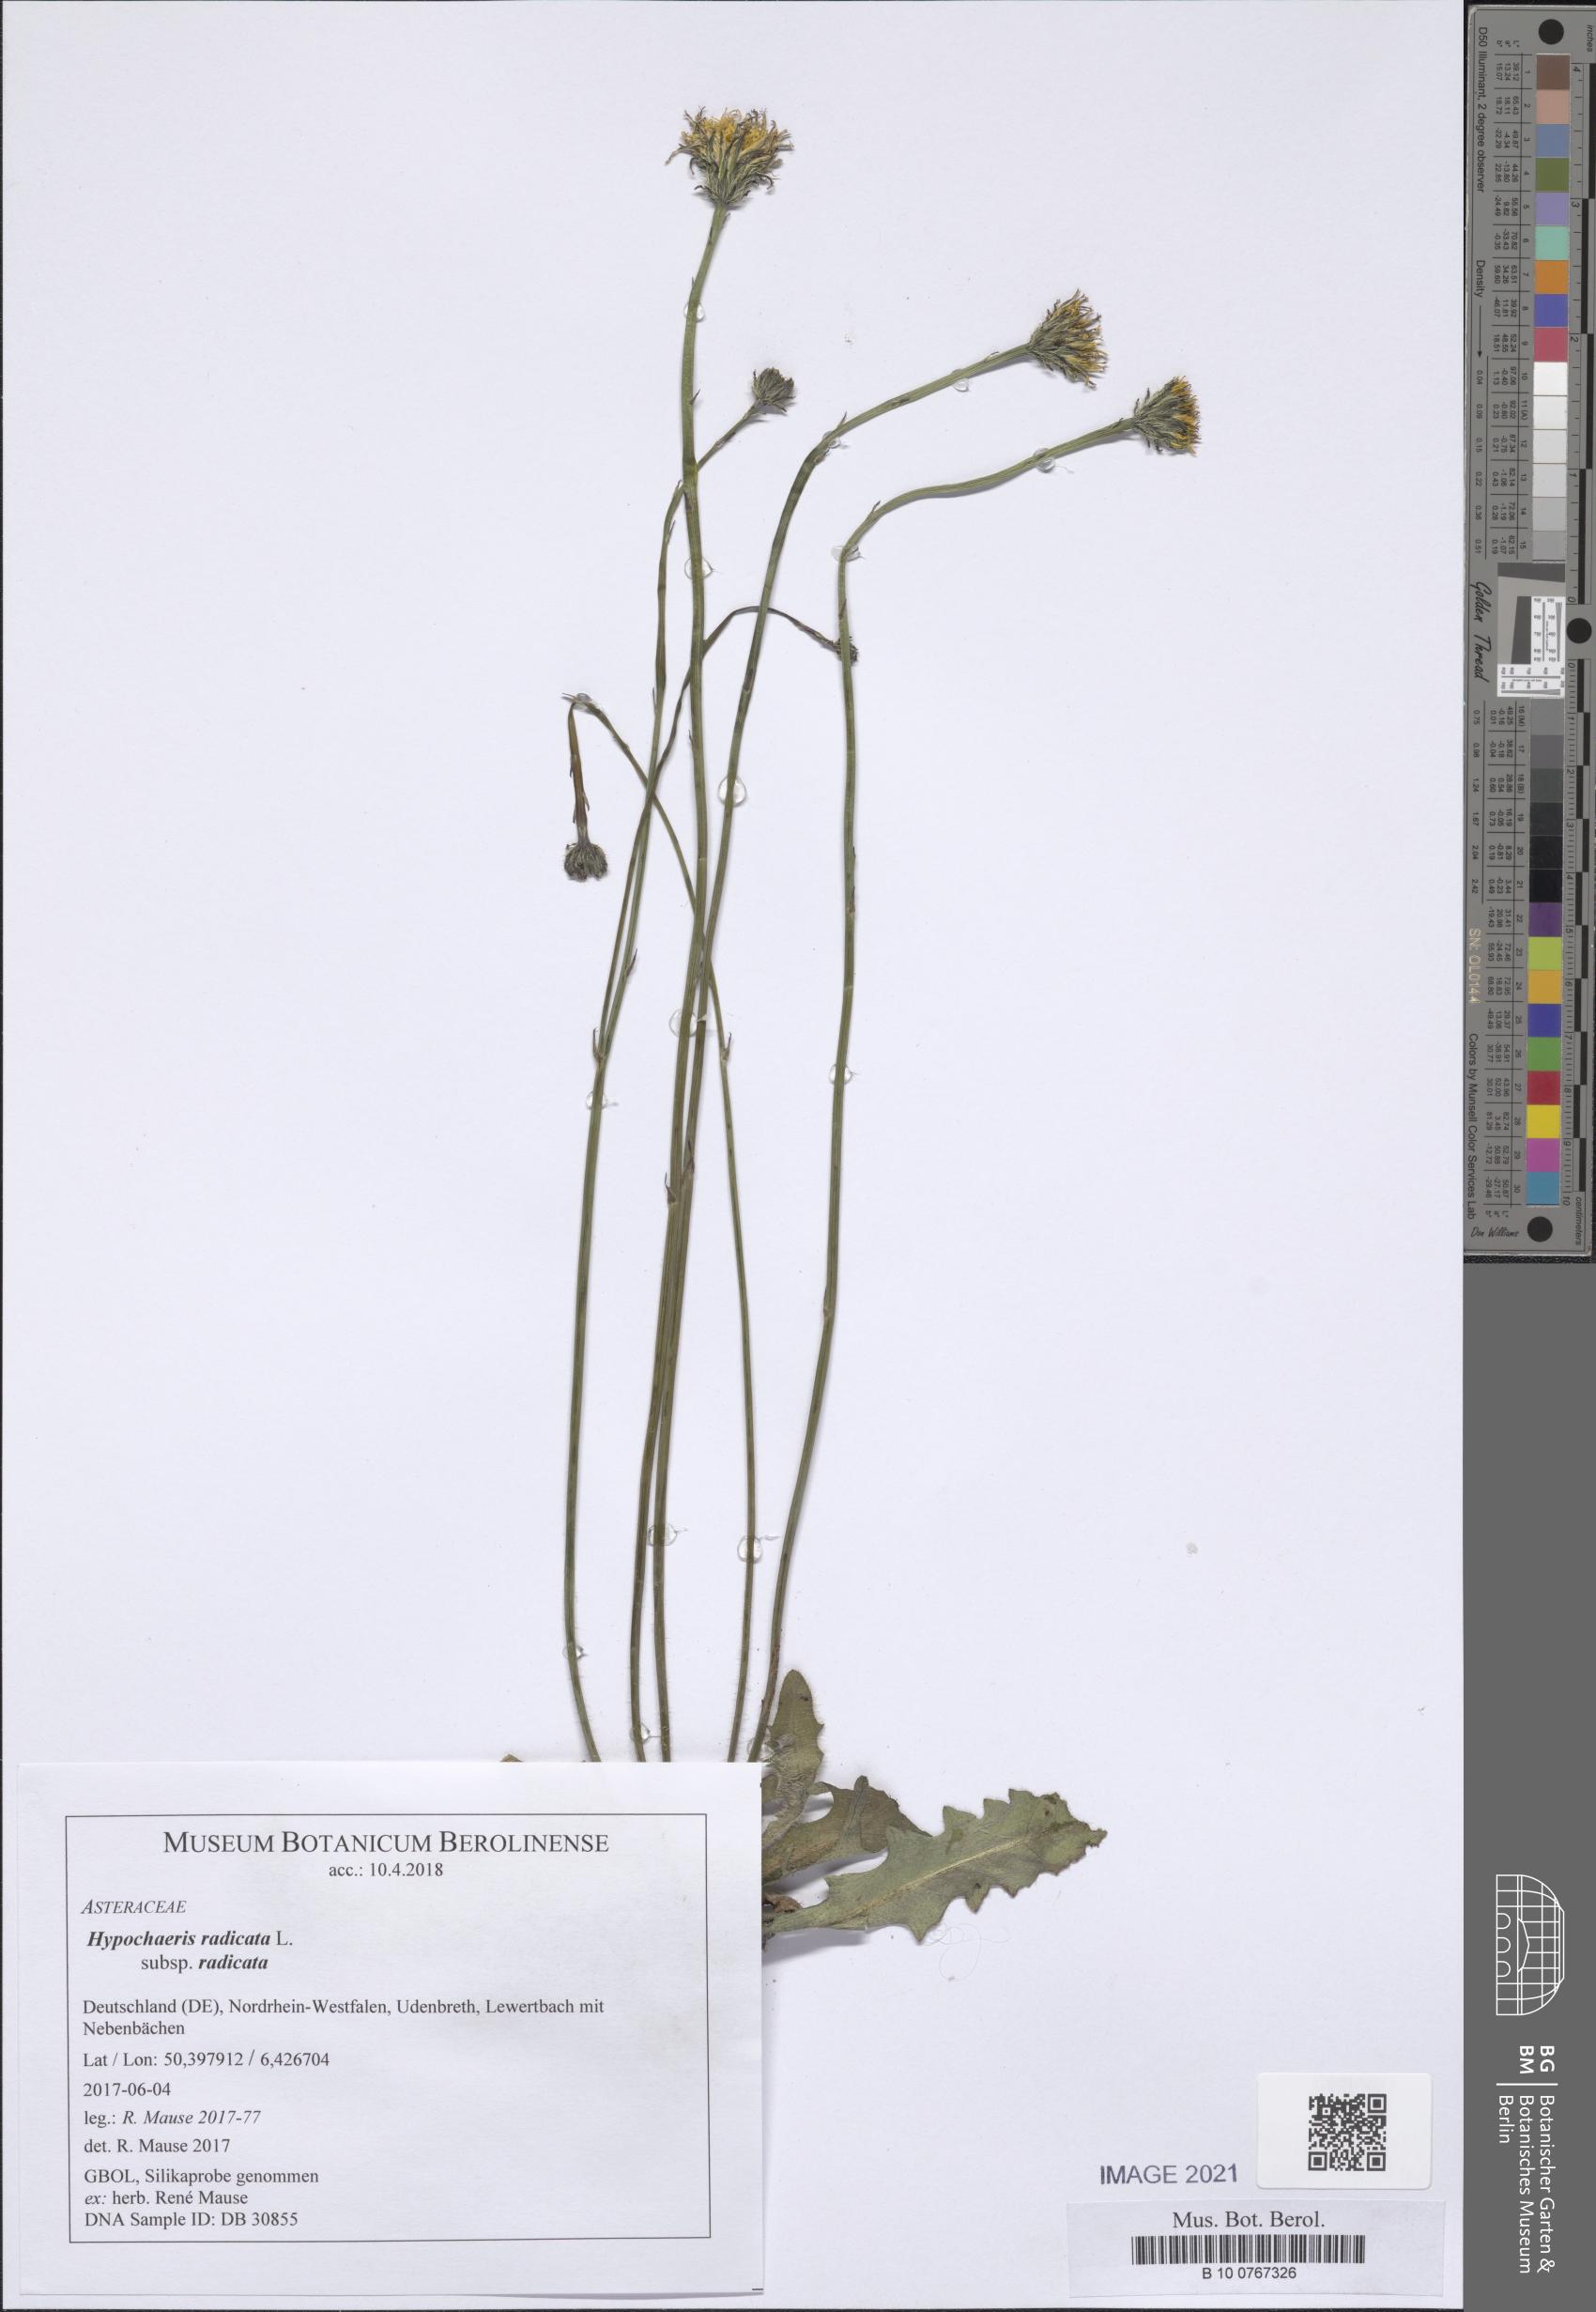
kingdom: Plantae
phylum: Tracheophyta
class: Magnoliopsida
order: Asterales
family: Asteraceae
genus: Hypochaeris
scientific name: Hypochaeris radicata
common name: Flatweed
